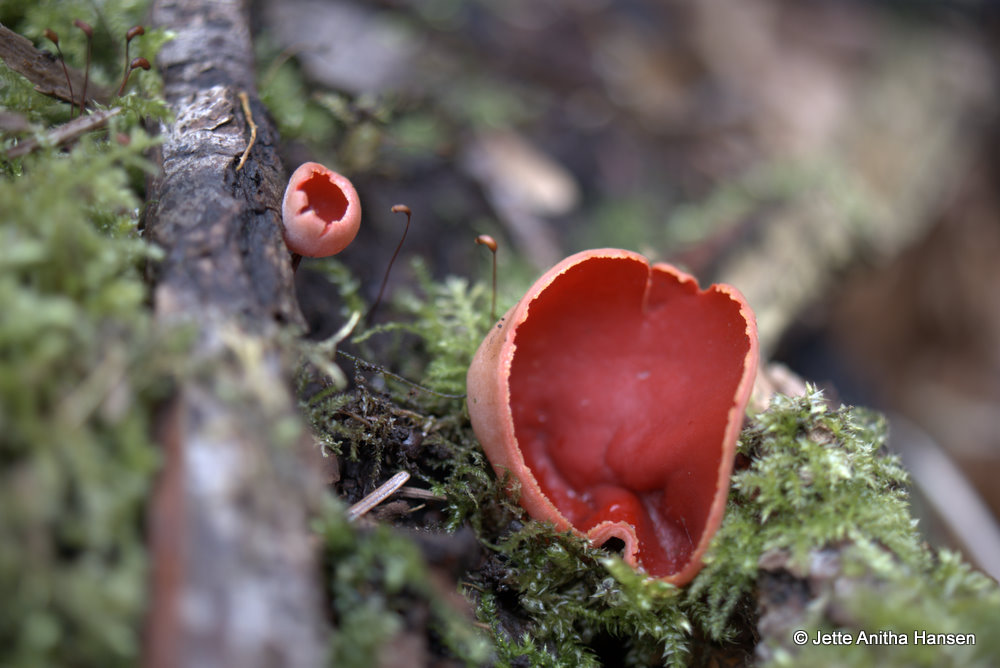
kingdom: Fungi
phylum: Ascomycota
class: Pezizomycetes
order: Pezizales
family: Sarcoscyphaceae
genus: Sarcoscypha
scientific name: Sarcoscypha austriaca
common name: krølhåret pragtbæger
